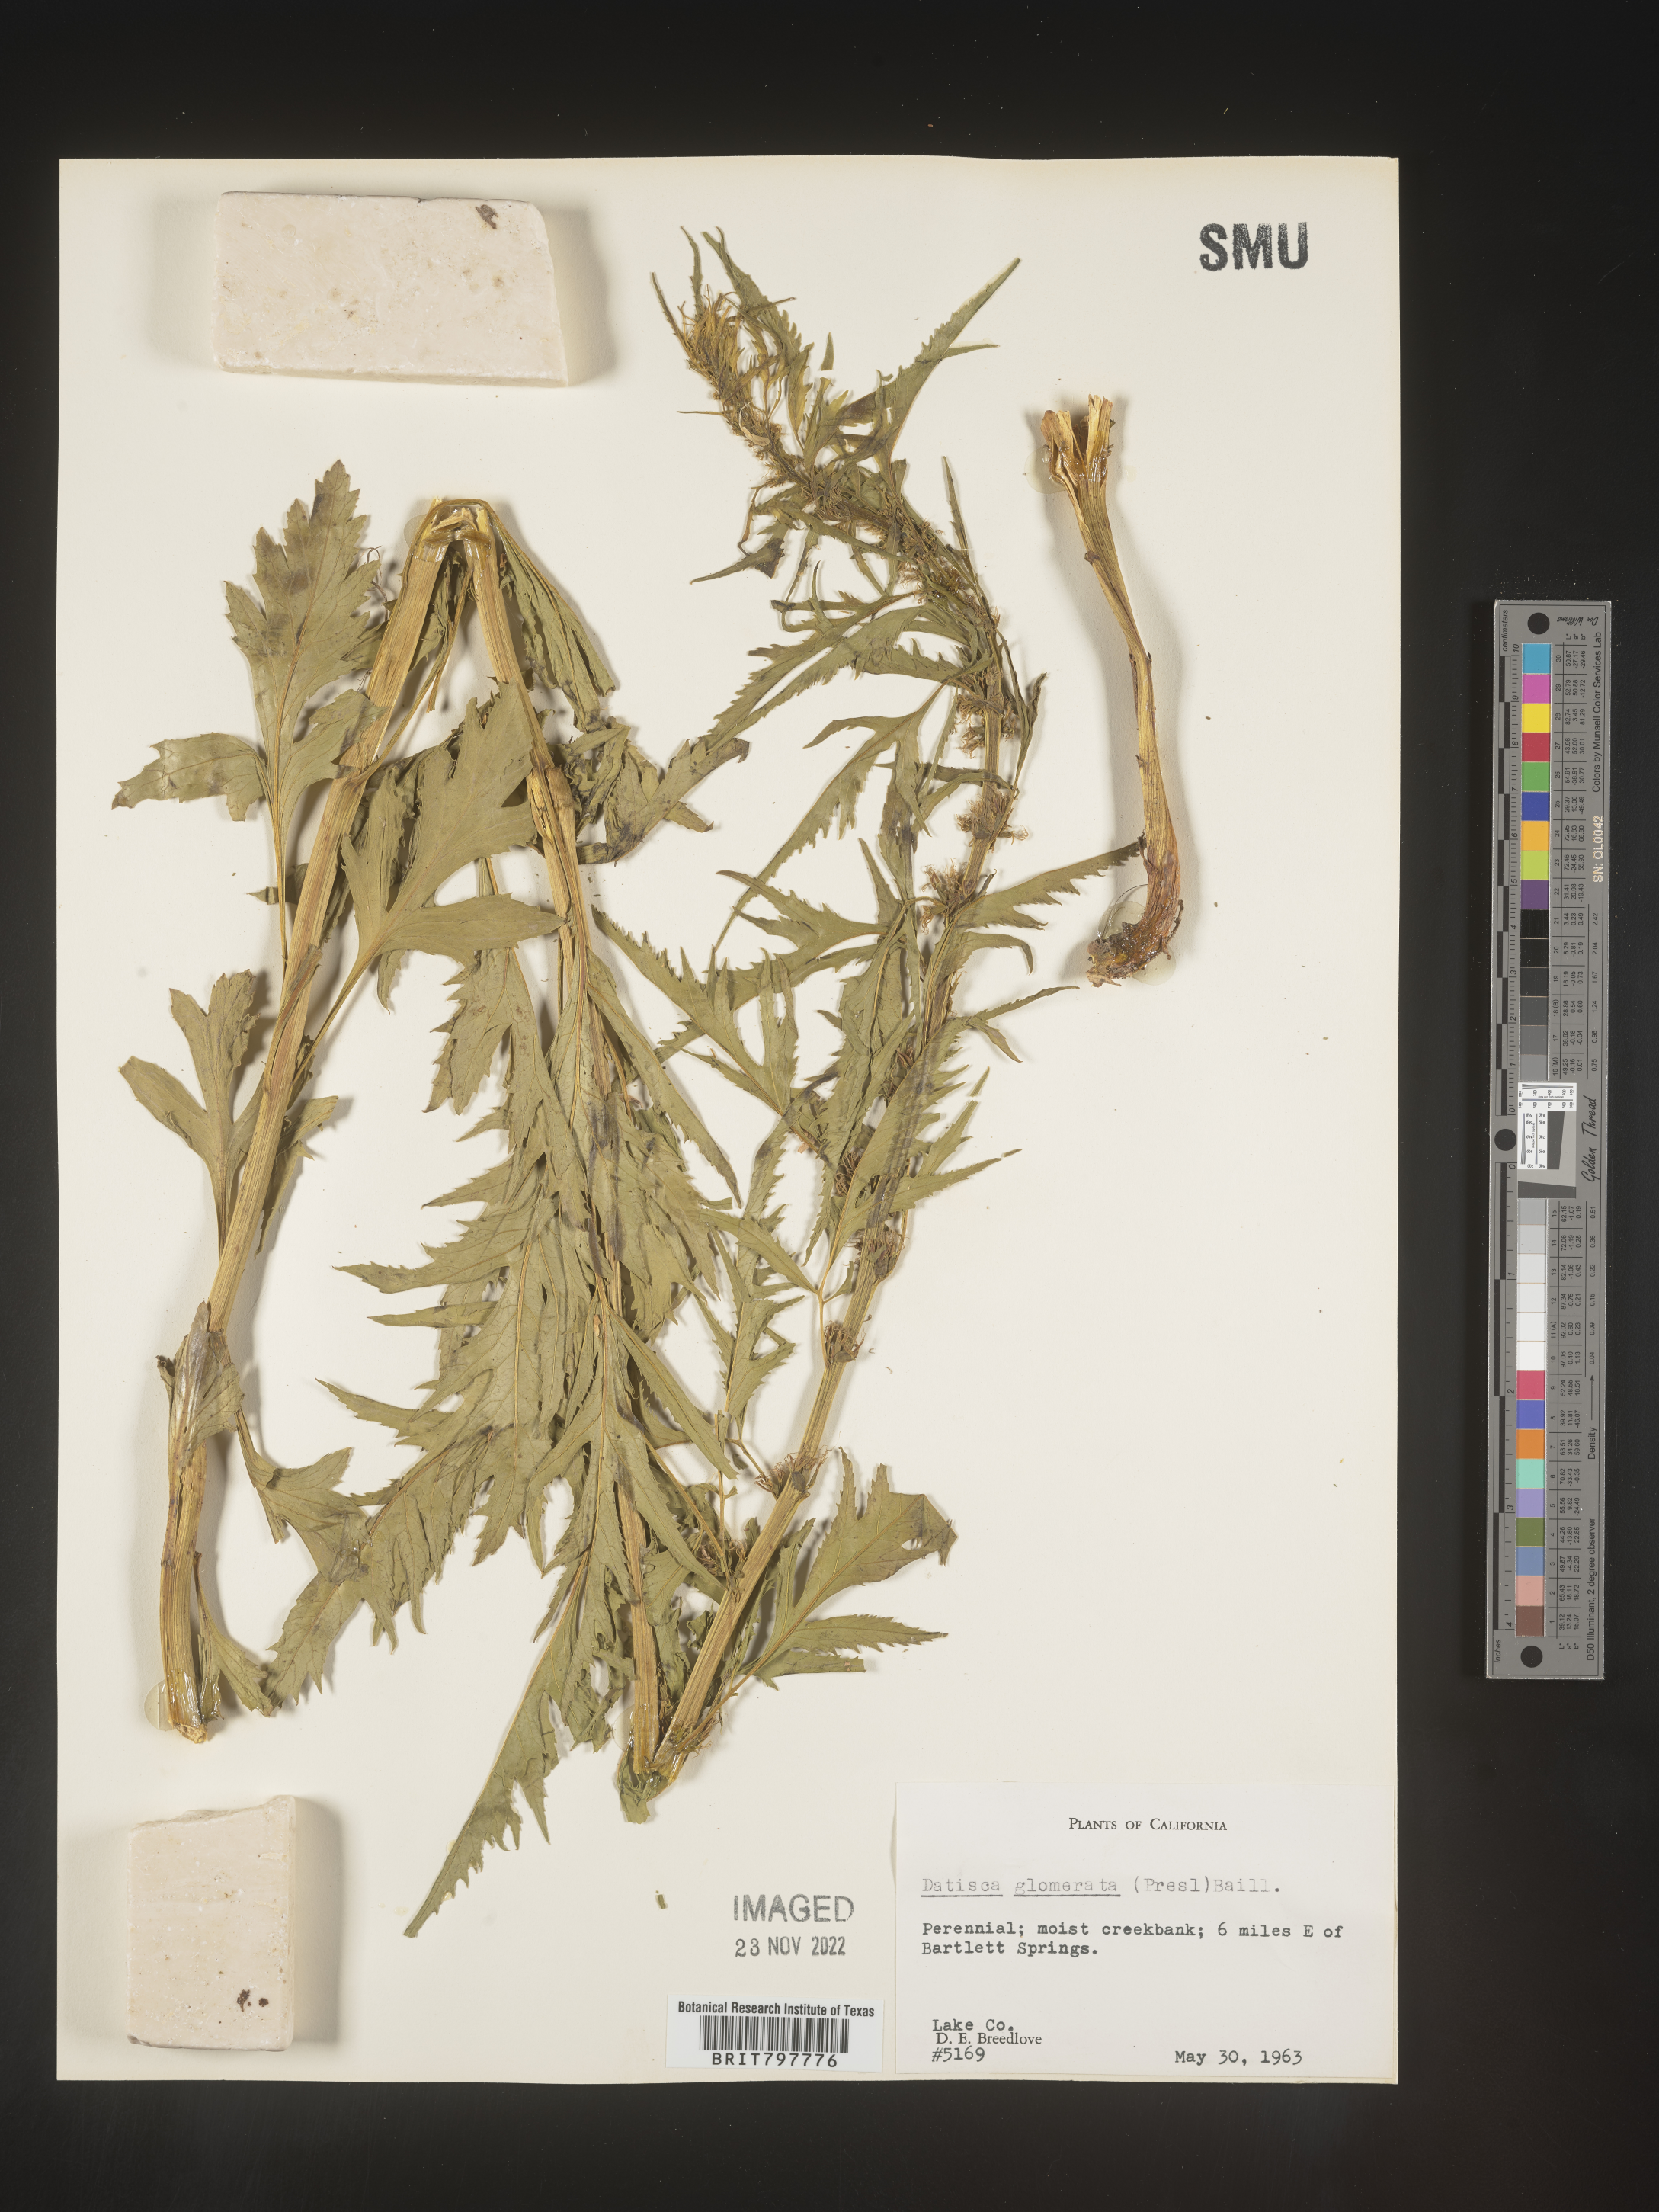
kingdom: Plantae
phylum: Tracheophyta
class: Magnoliopsida
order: Cucurbitales
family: Datiscaceae
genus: Datisca
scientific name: Datisca
